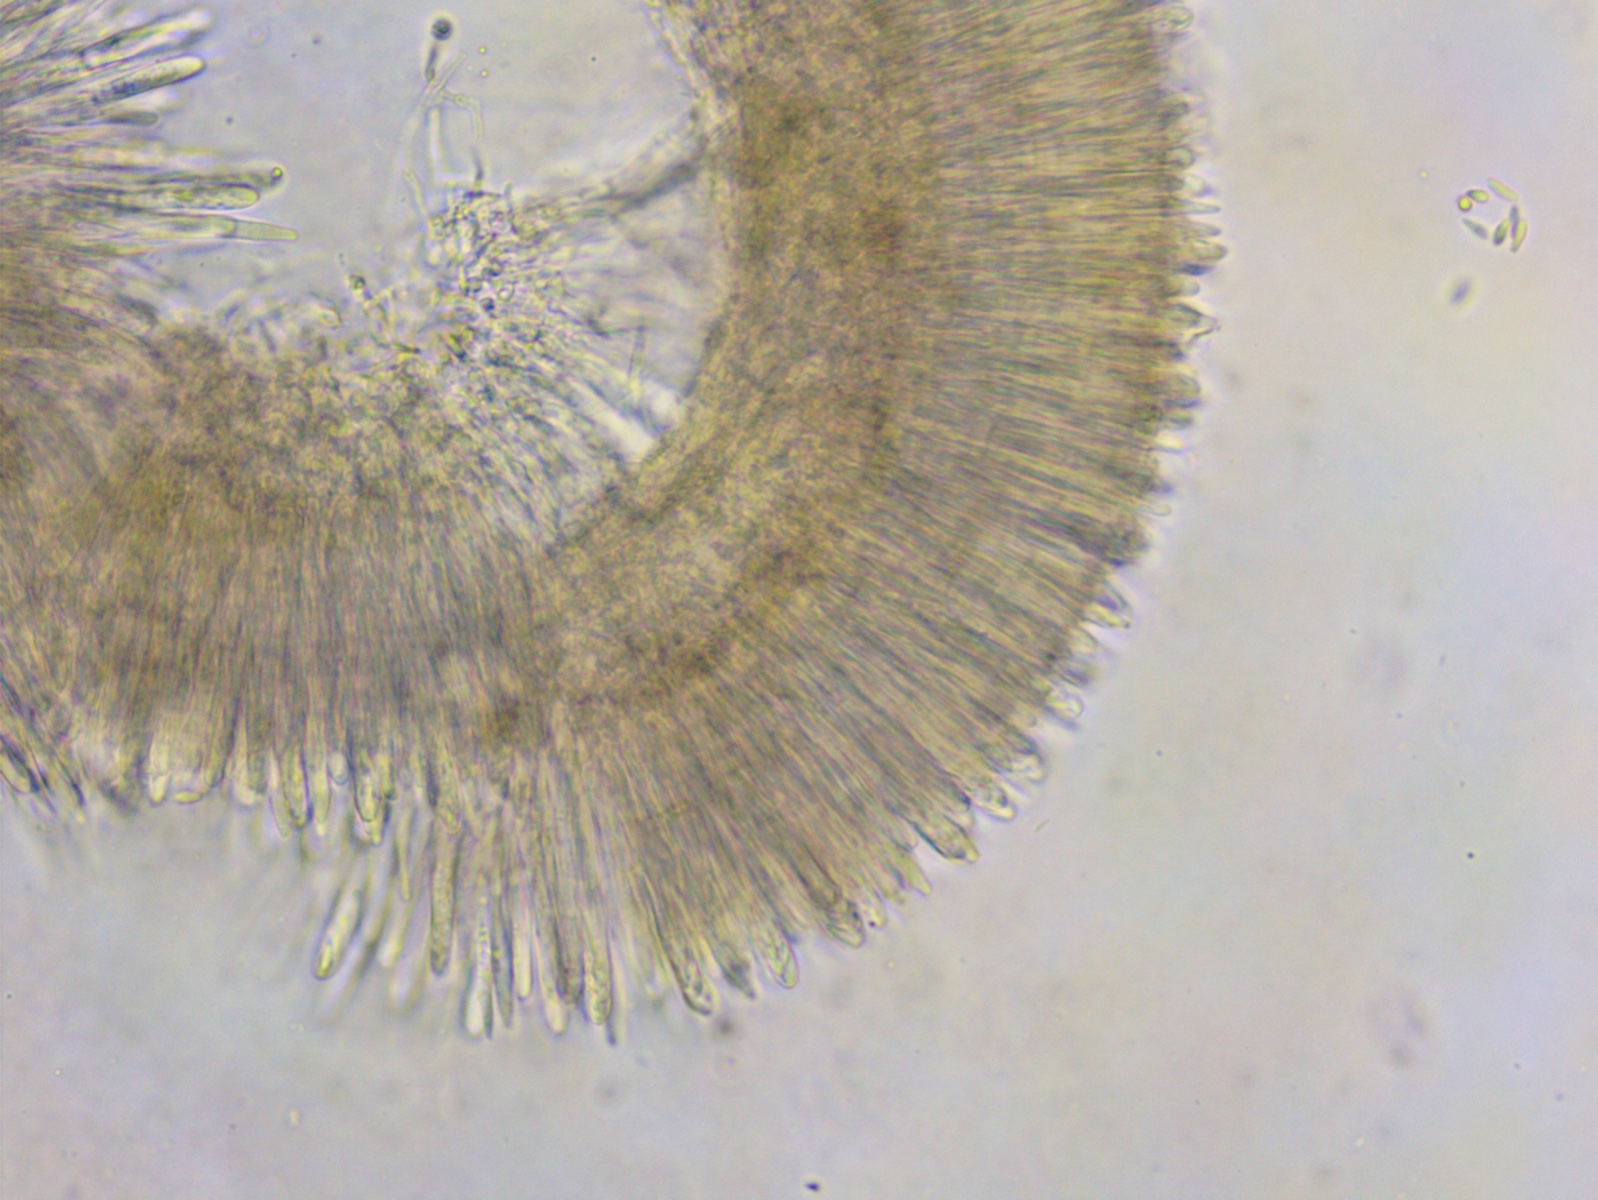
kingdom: Fungi
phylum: Ascomycota
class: Leotiomycetes
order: Helotiales
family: Lachnaceae
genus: Lachnum
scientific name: Lachnum impudicum
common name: vinter-frynseskive
